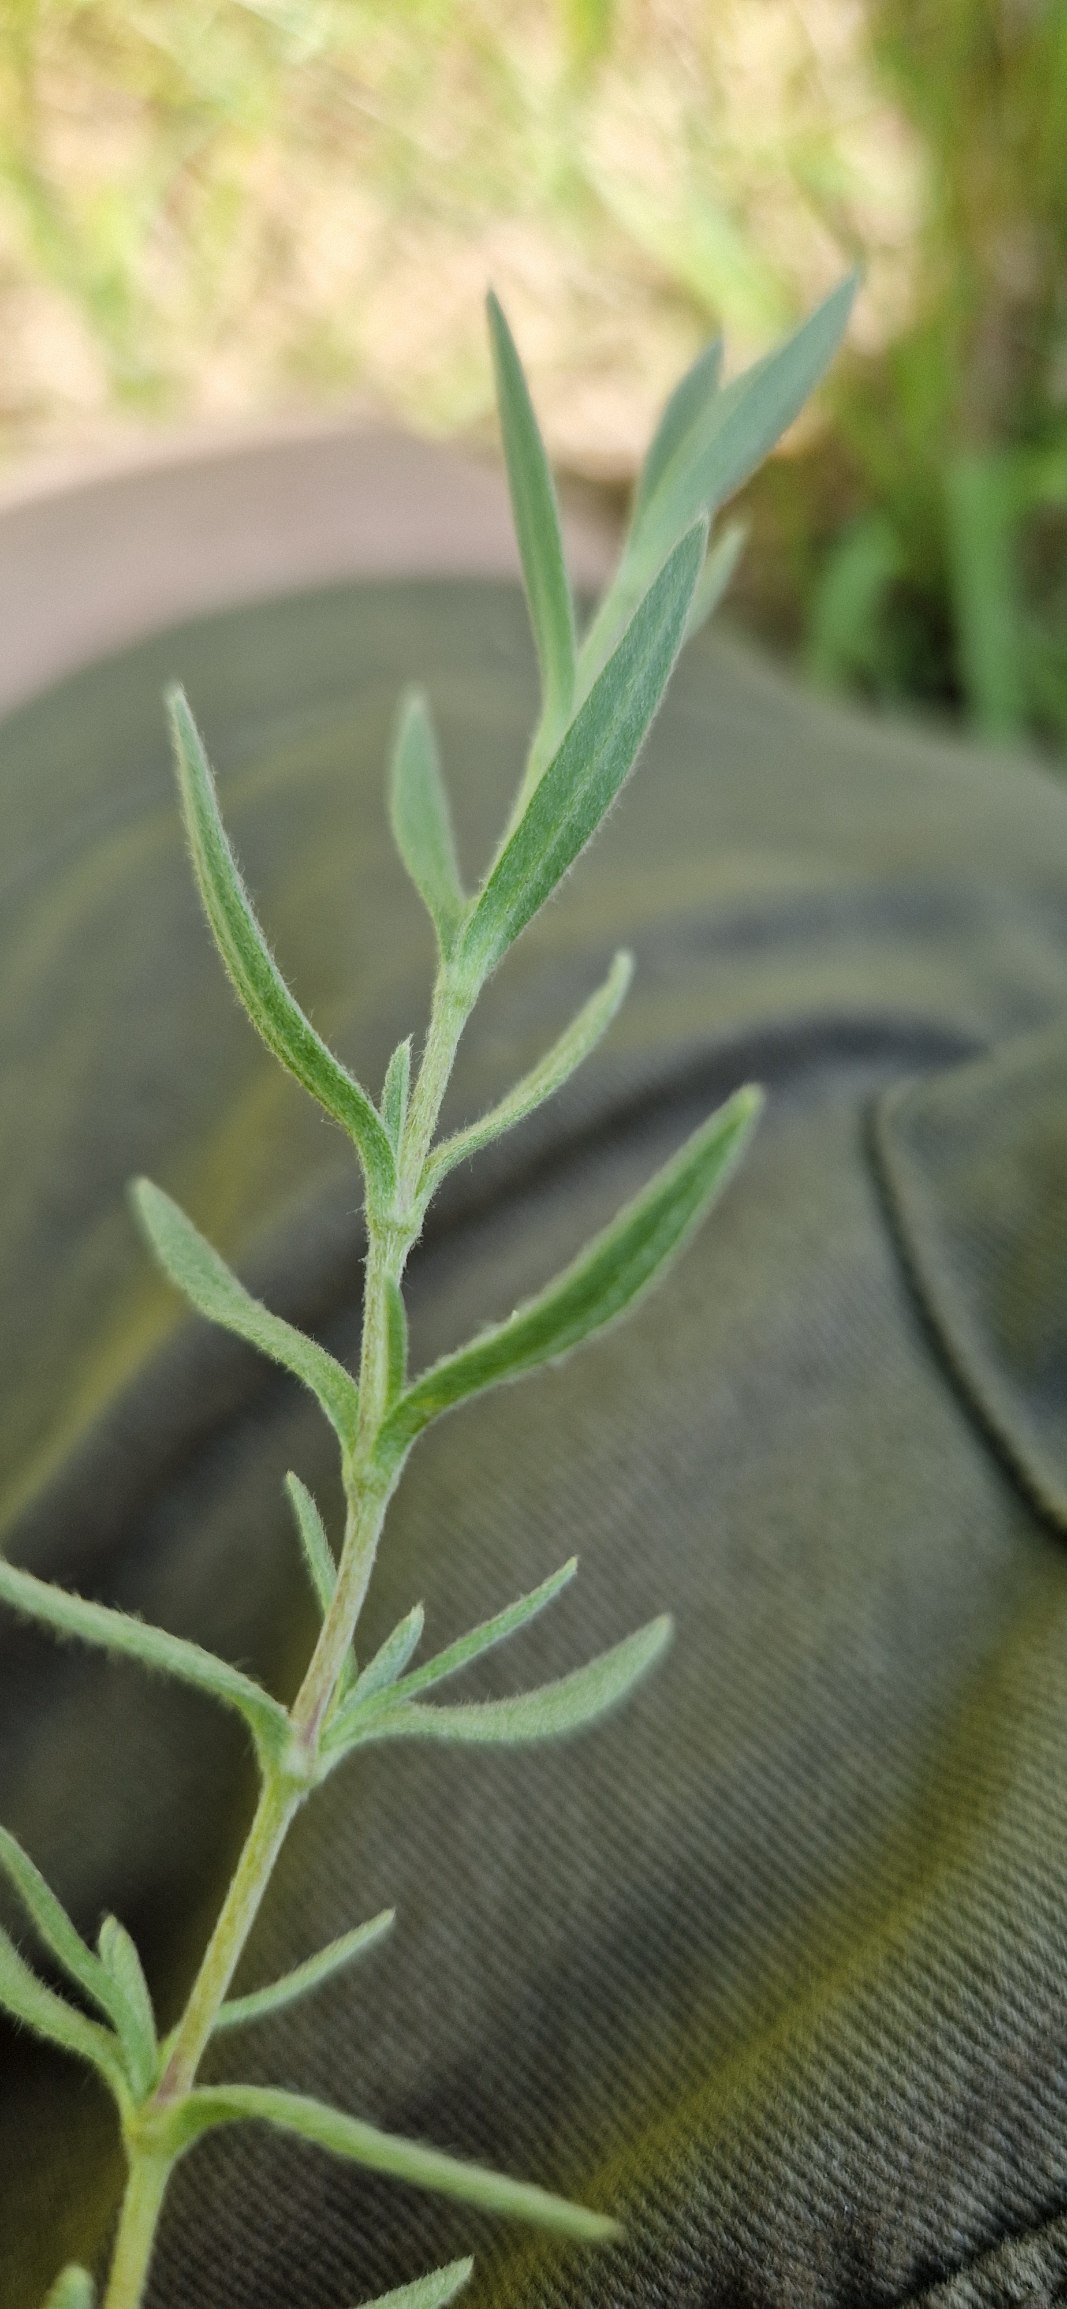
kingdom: Plantae
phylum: Tracheophyta
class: Magnoliopsida
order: Caryophyllales
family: Caryophyllaceae
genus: Cerastium
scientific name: Cerastium
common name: Storblomstret hønsetarm × filtet hønsetarm
